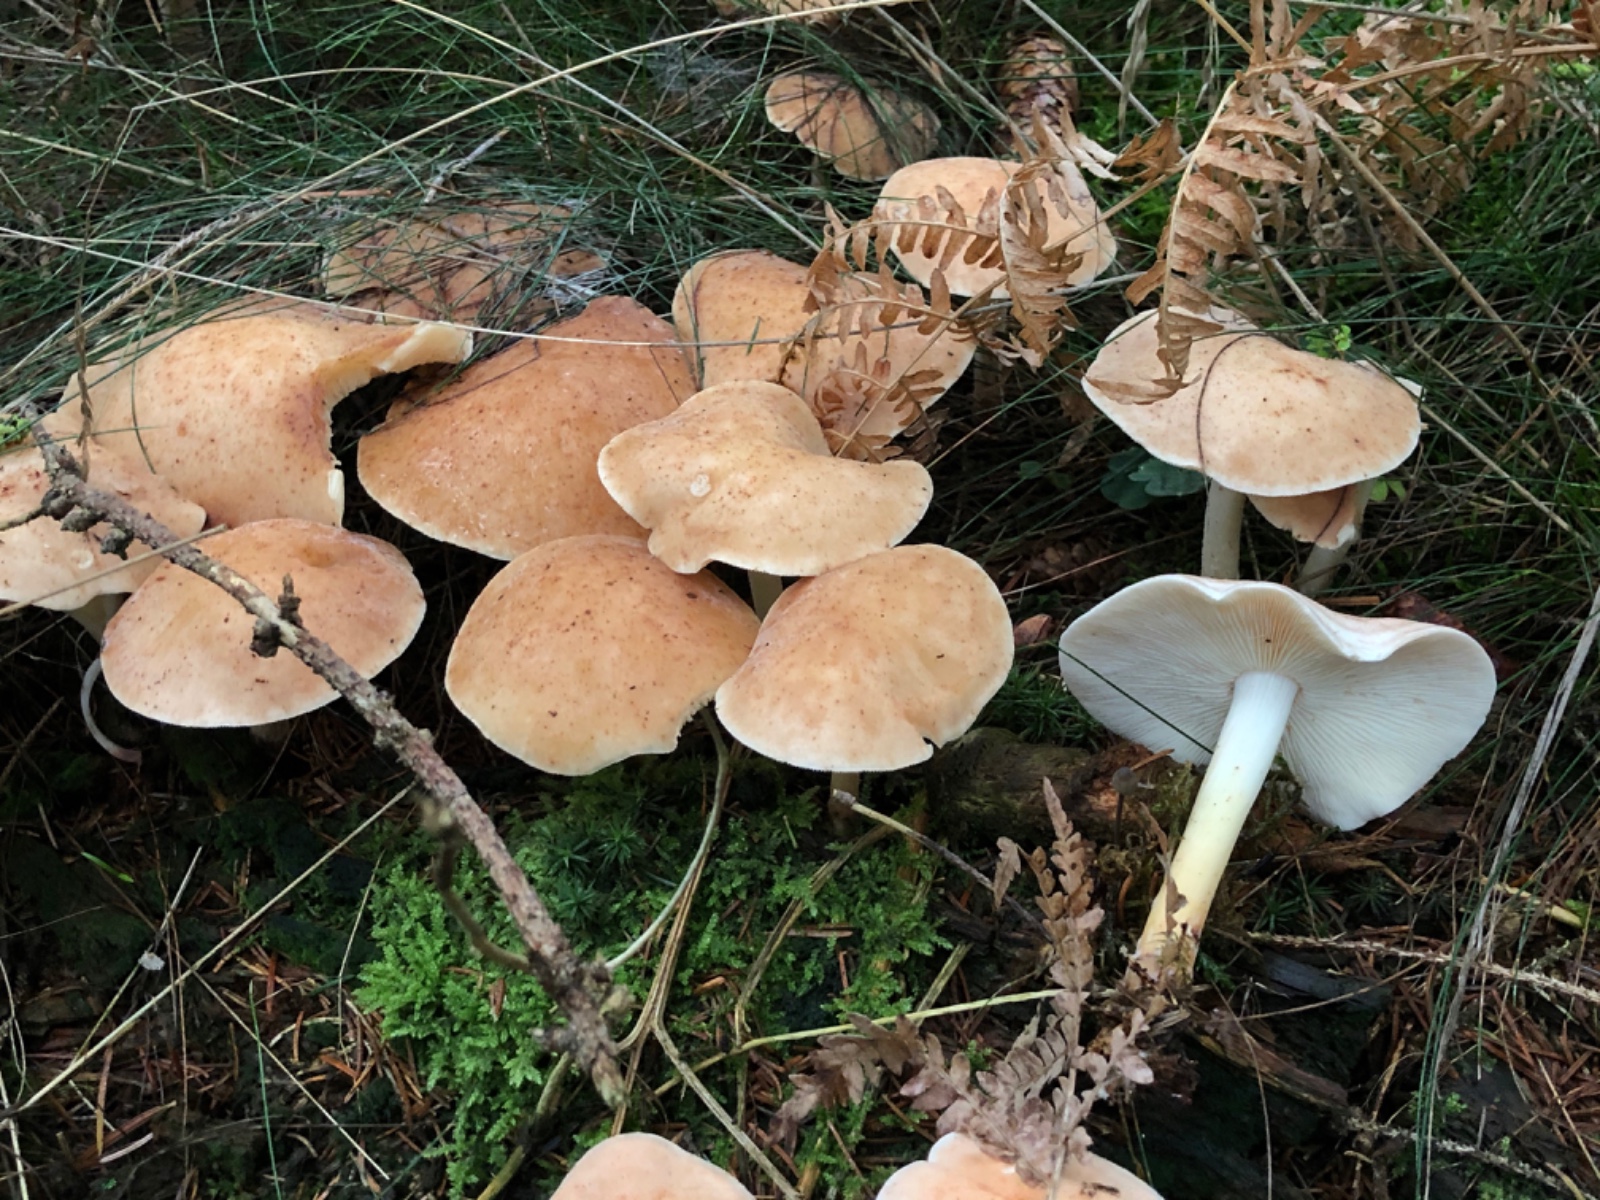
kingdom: Fungi
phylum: Basidiomycota
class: Agaricomycetes
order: Agaricales
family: Omphalotaceae
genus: Rhodocollybia
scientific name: Rhodocollybia maculata
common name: plettet fladhat
